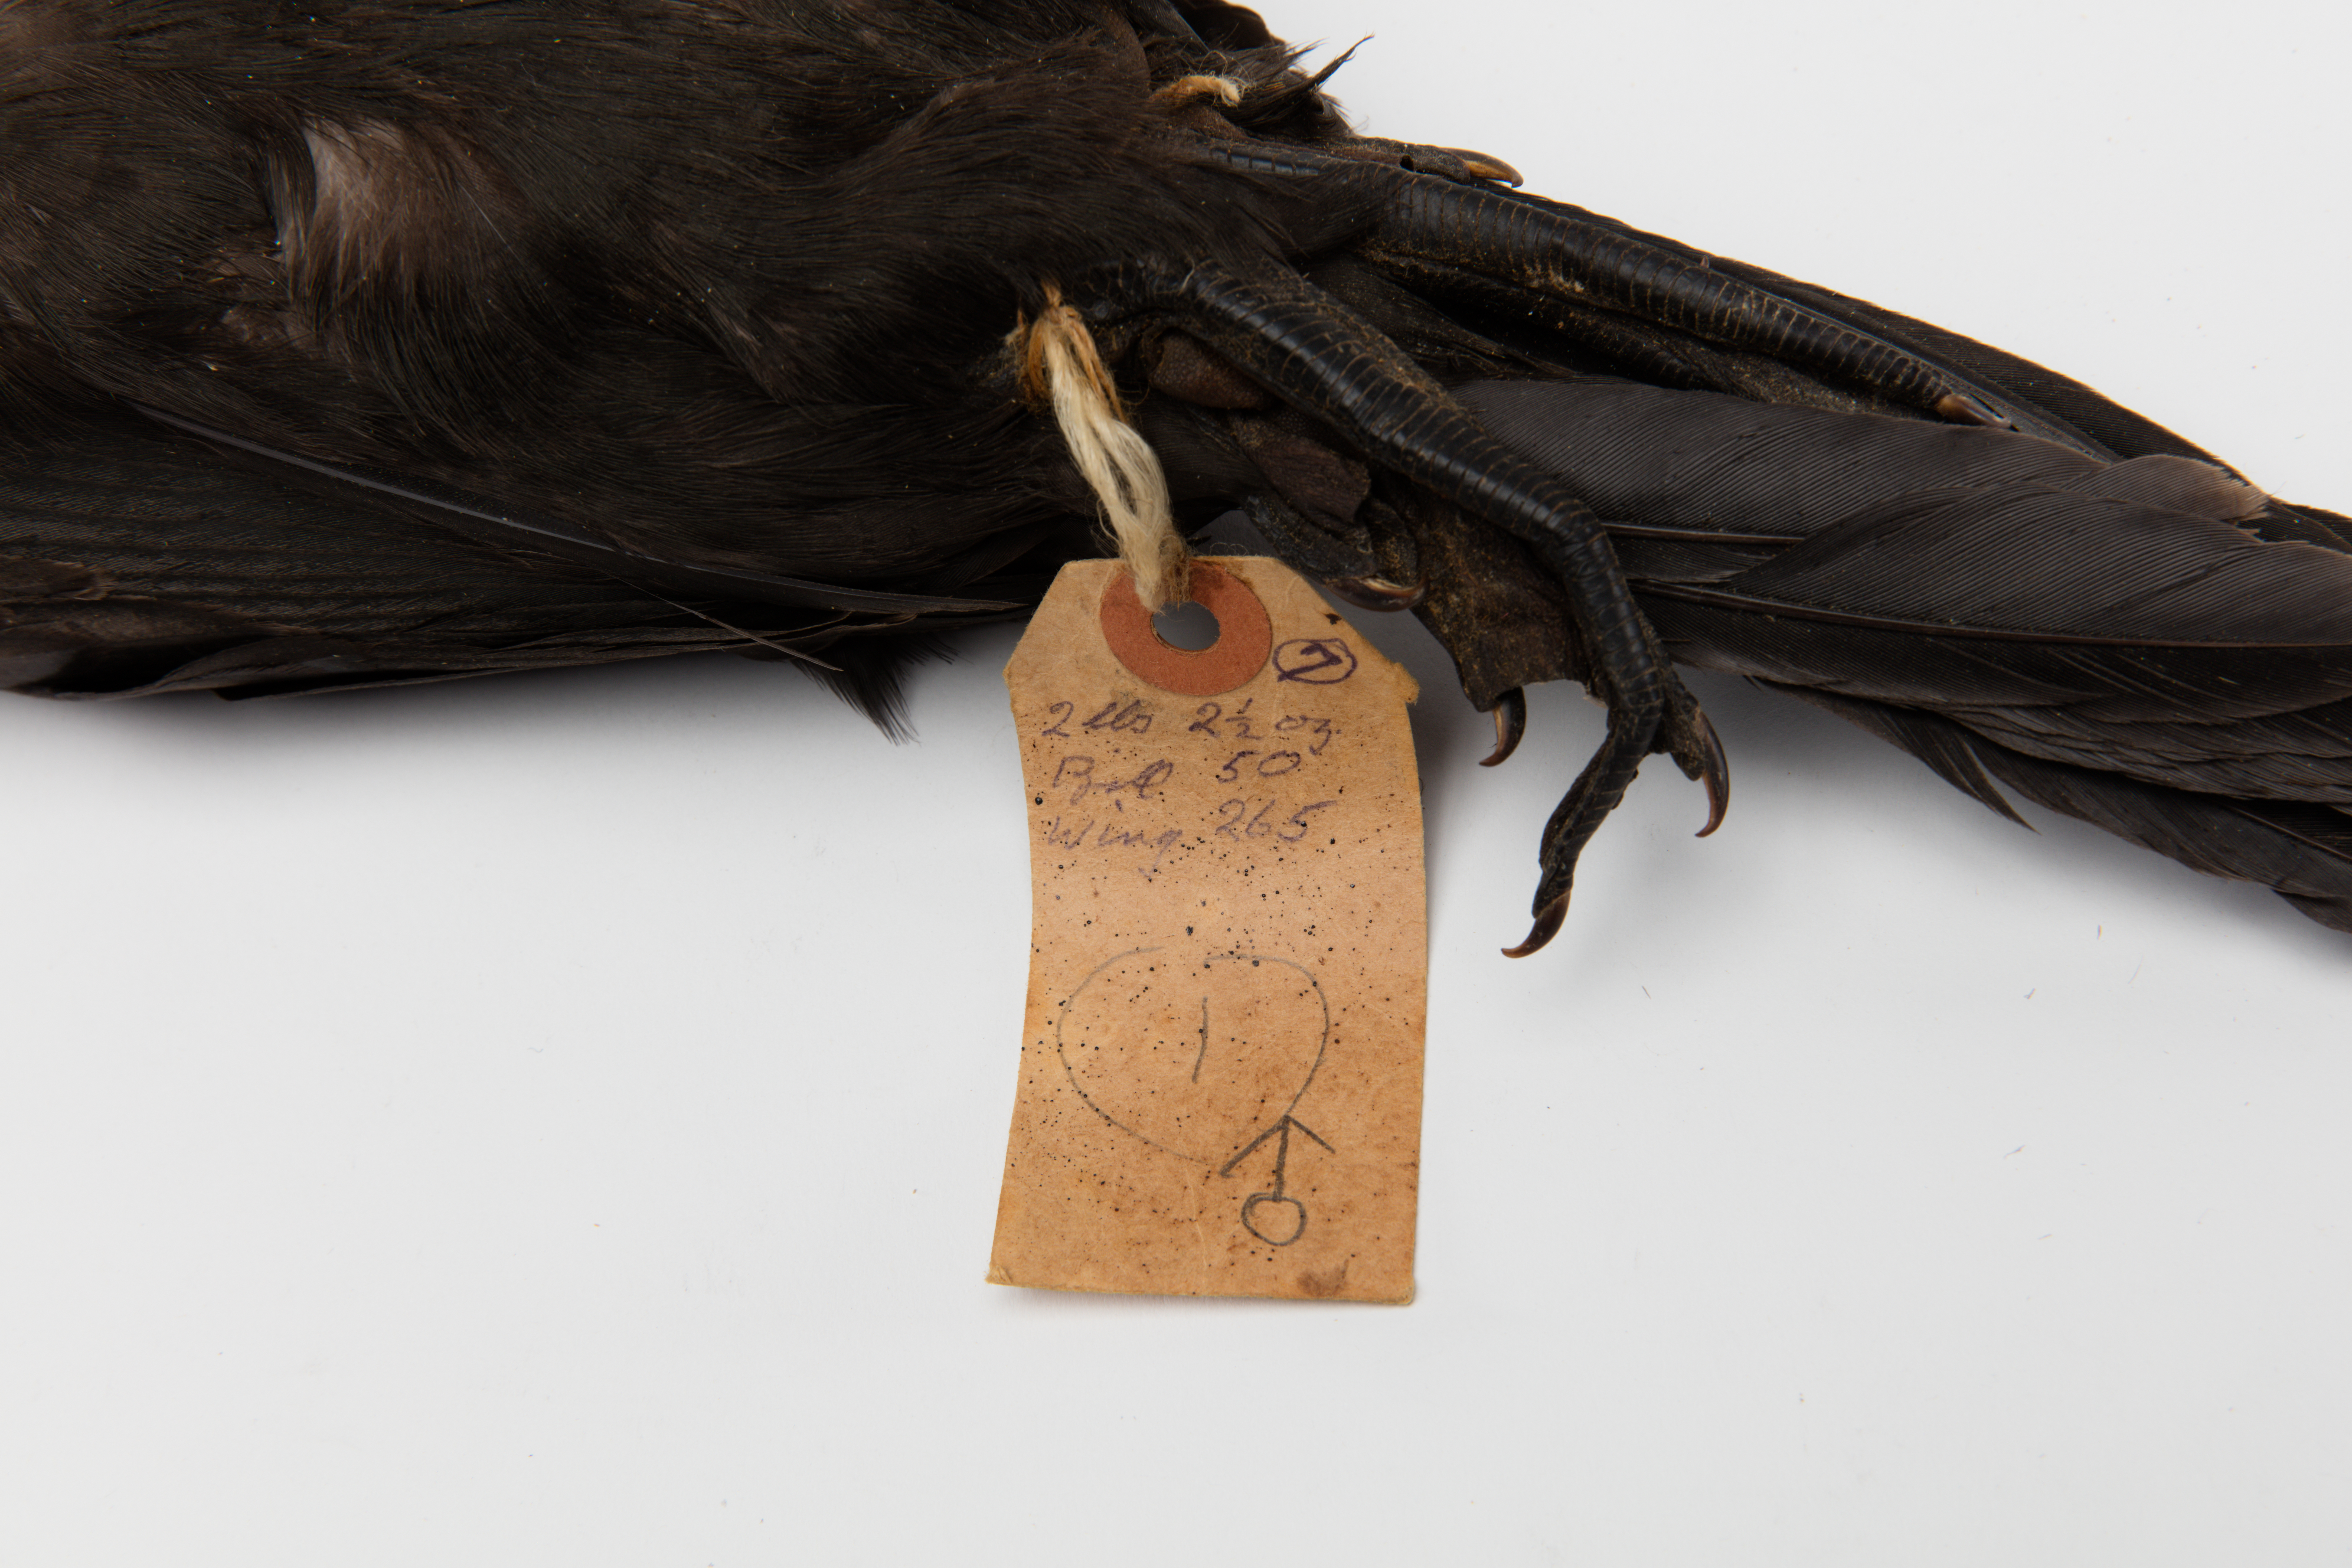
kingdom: Animalia
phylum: Chordata
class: Aves
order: Suliformes
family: Phalacrocoracidae
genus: Phalacrocorax
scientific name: Phalacrocorax sulcirostris
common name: Little black cormorant
